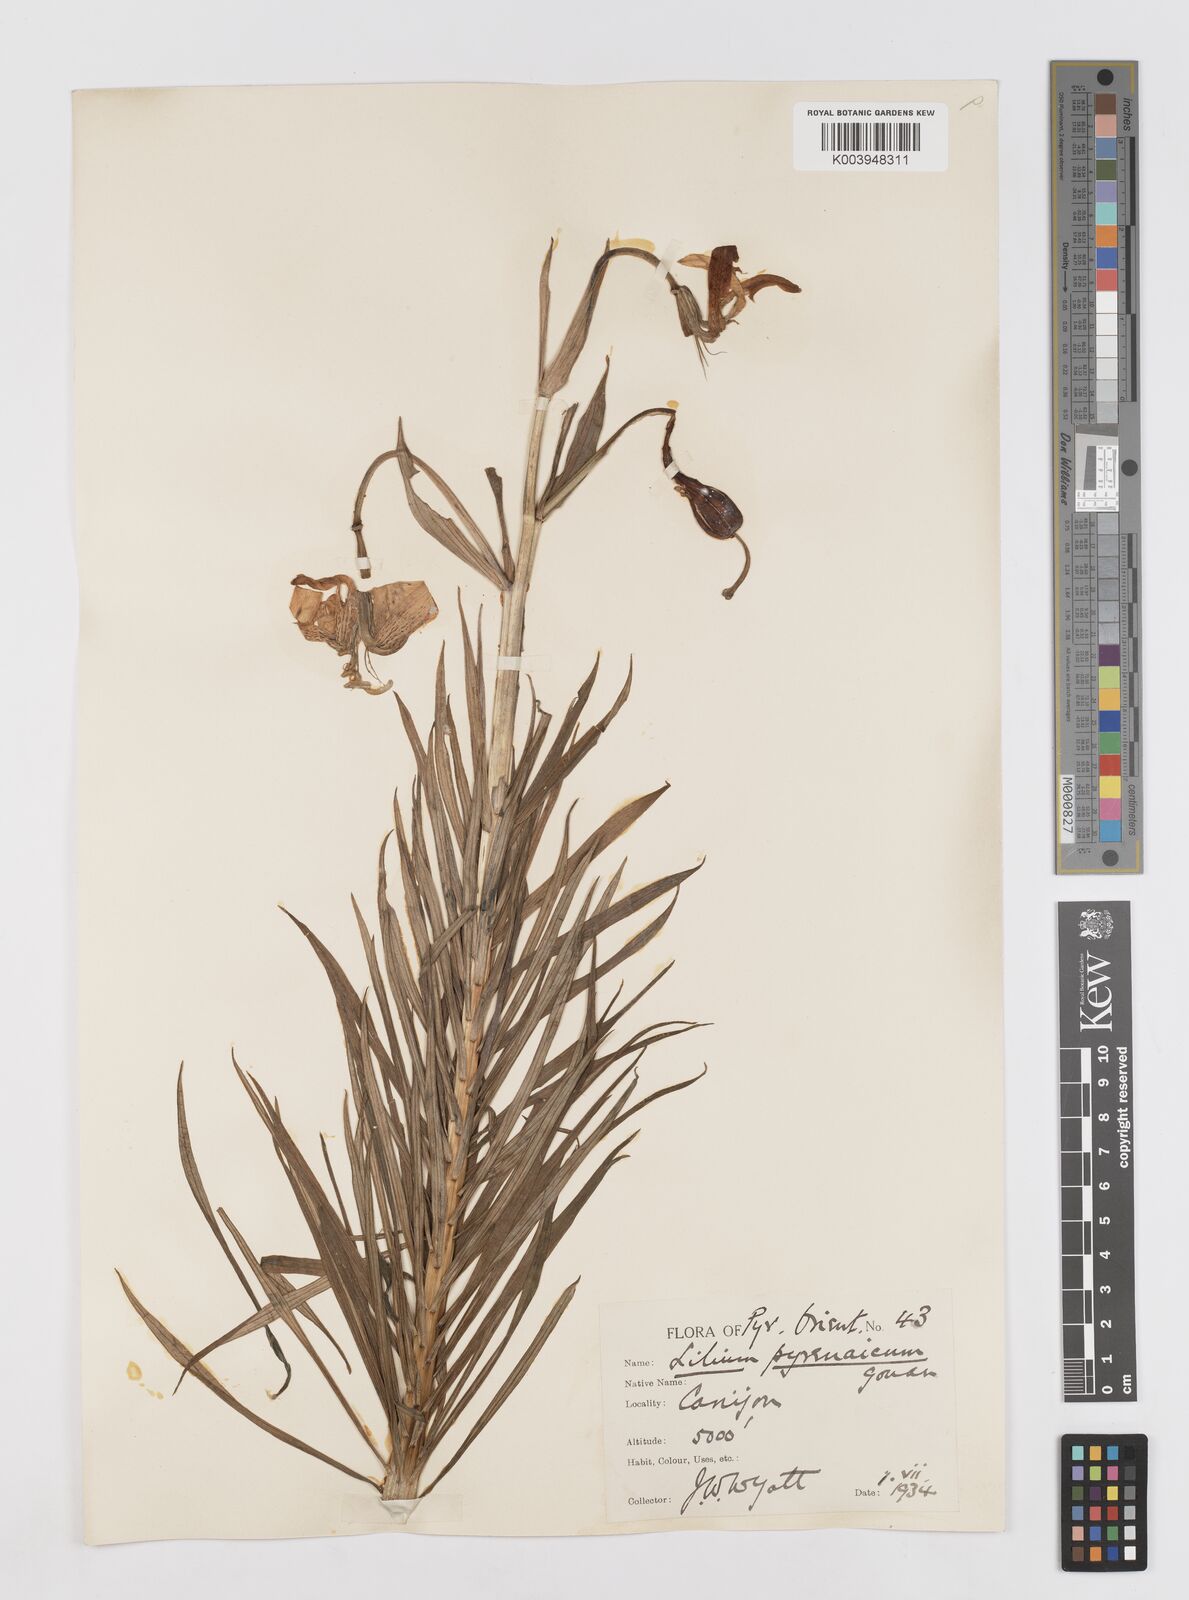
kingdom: Plantae
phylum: Tracheophyta
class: Liliopsida
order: Liliales
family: Liliaceae
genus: Lilium
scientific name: Lilium pyrenaicum
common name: Pyrenean lily
